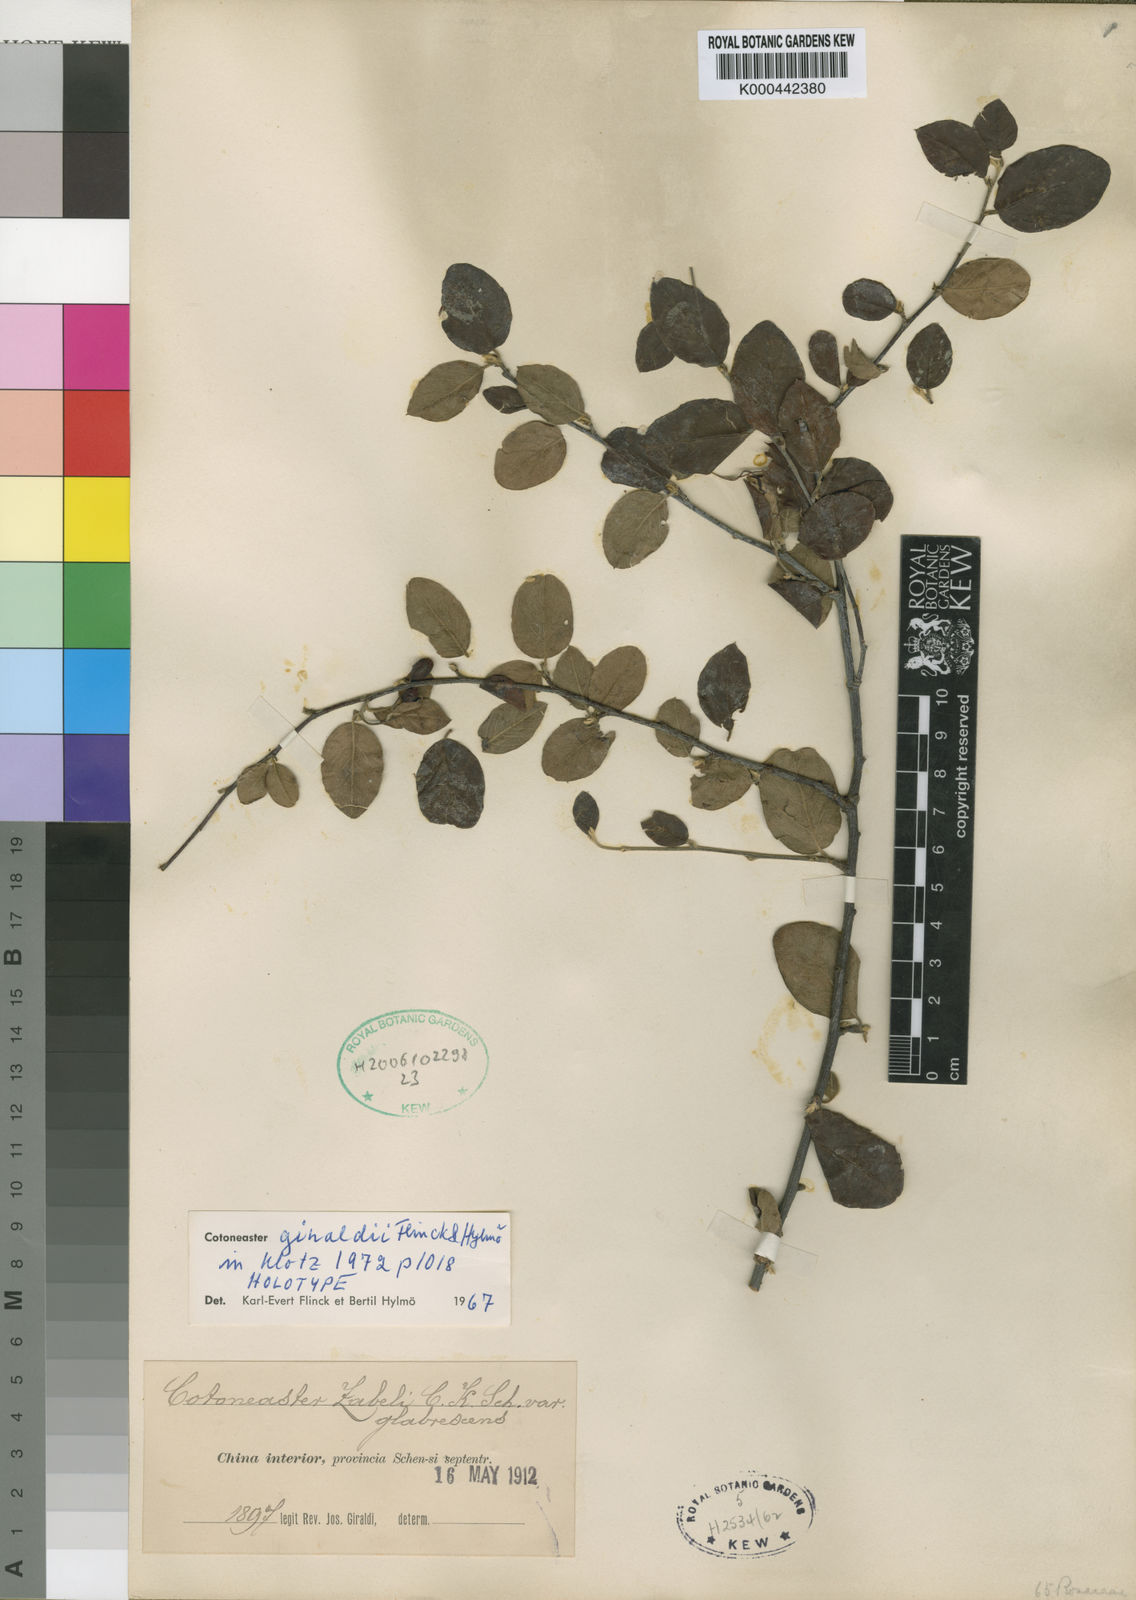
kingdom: Plantae
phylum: Tracheophyta
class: Magnoliopsida
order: Rosales
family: Rosaceae
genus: Cotoneaster
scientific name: Cotoneaster zabelii
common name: Cherryred cotoneaster
